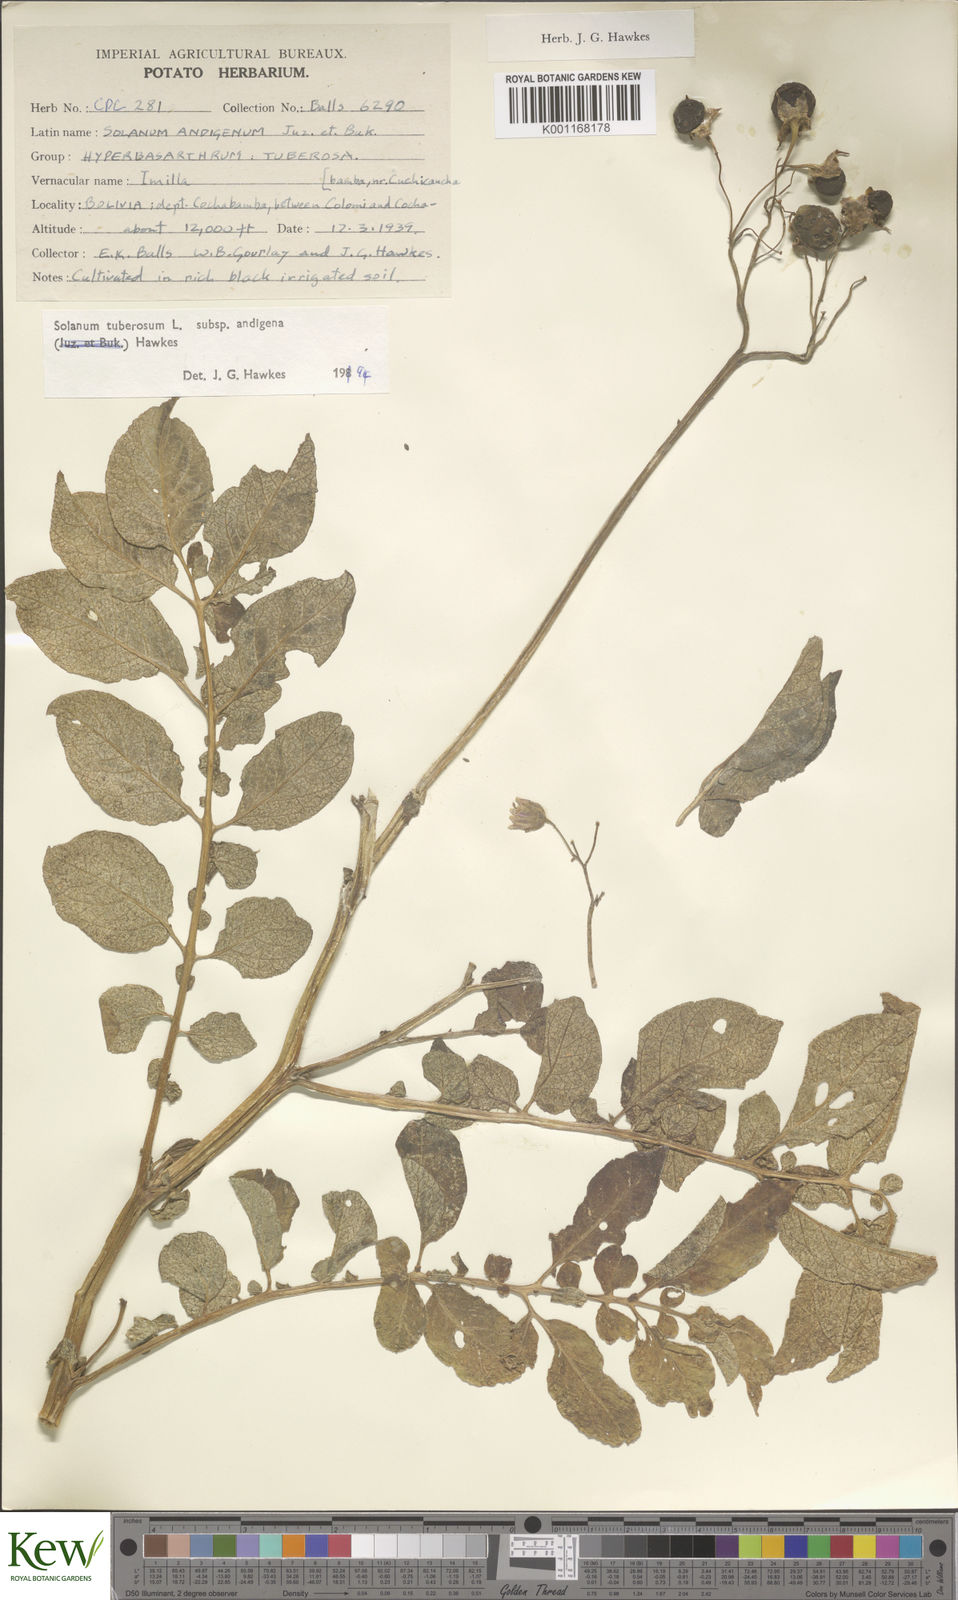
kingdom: Plantae
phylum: Tracheophyta
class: Magnoliopsida
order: Solanales
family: Solanaceae
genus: Solanum
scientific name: Solanum tuberosum
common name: Potato
